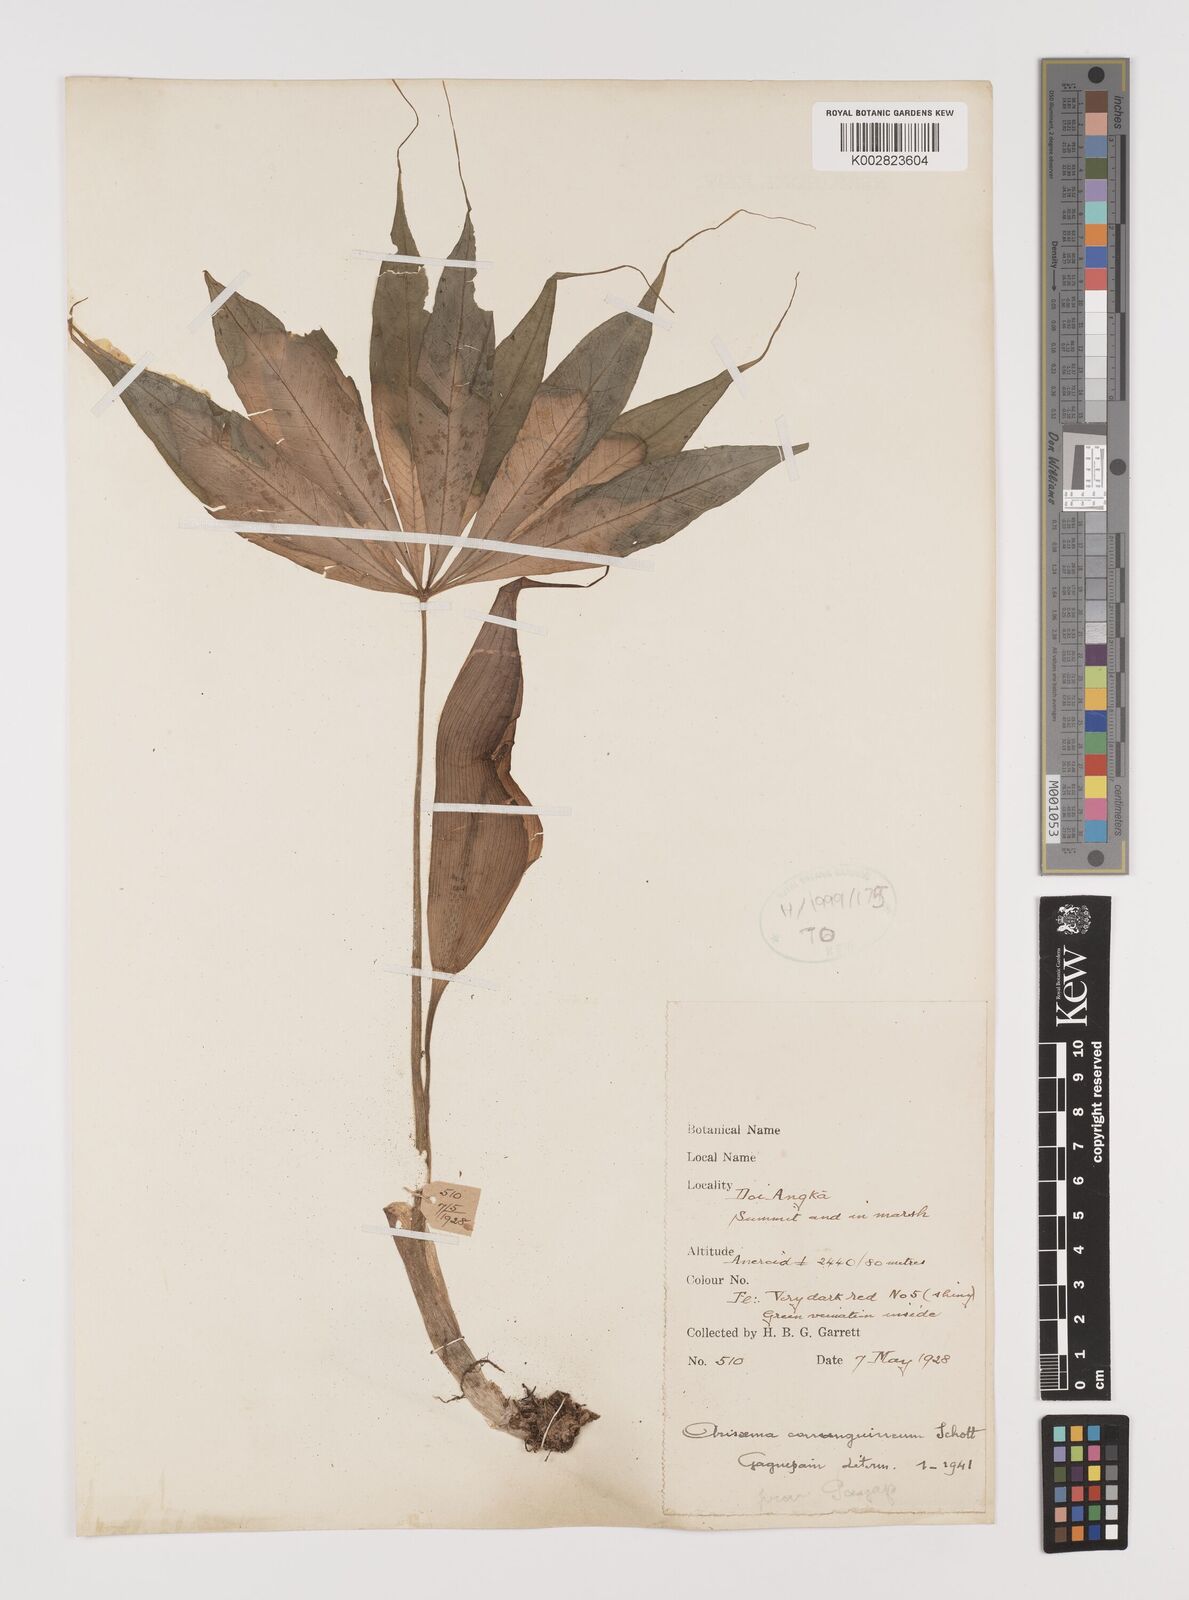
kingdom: Plantae
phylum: Tracheophyta
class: Liliopsida
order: Alismatales
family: Araceae
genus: Arisaema
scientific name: Arisaema consanguineum
